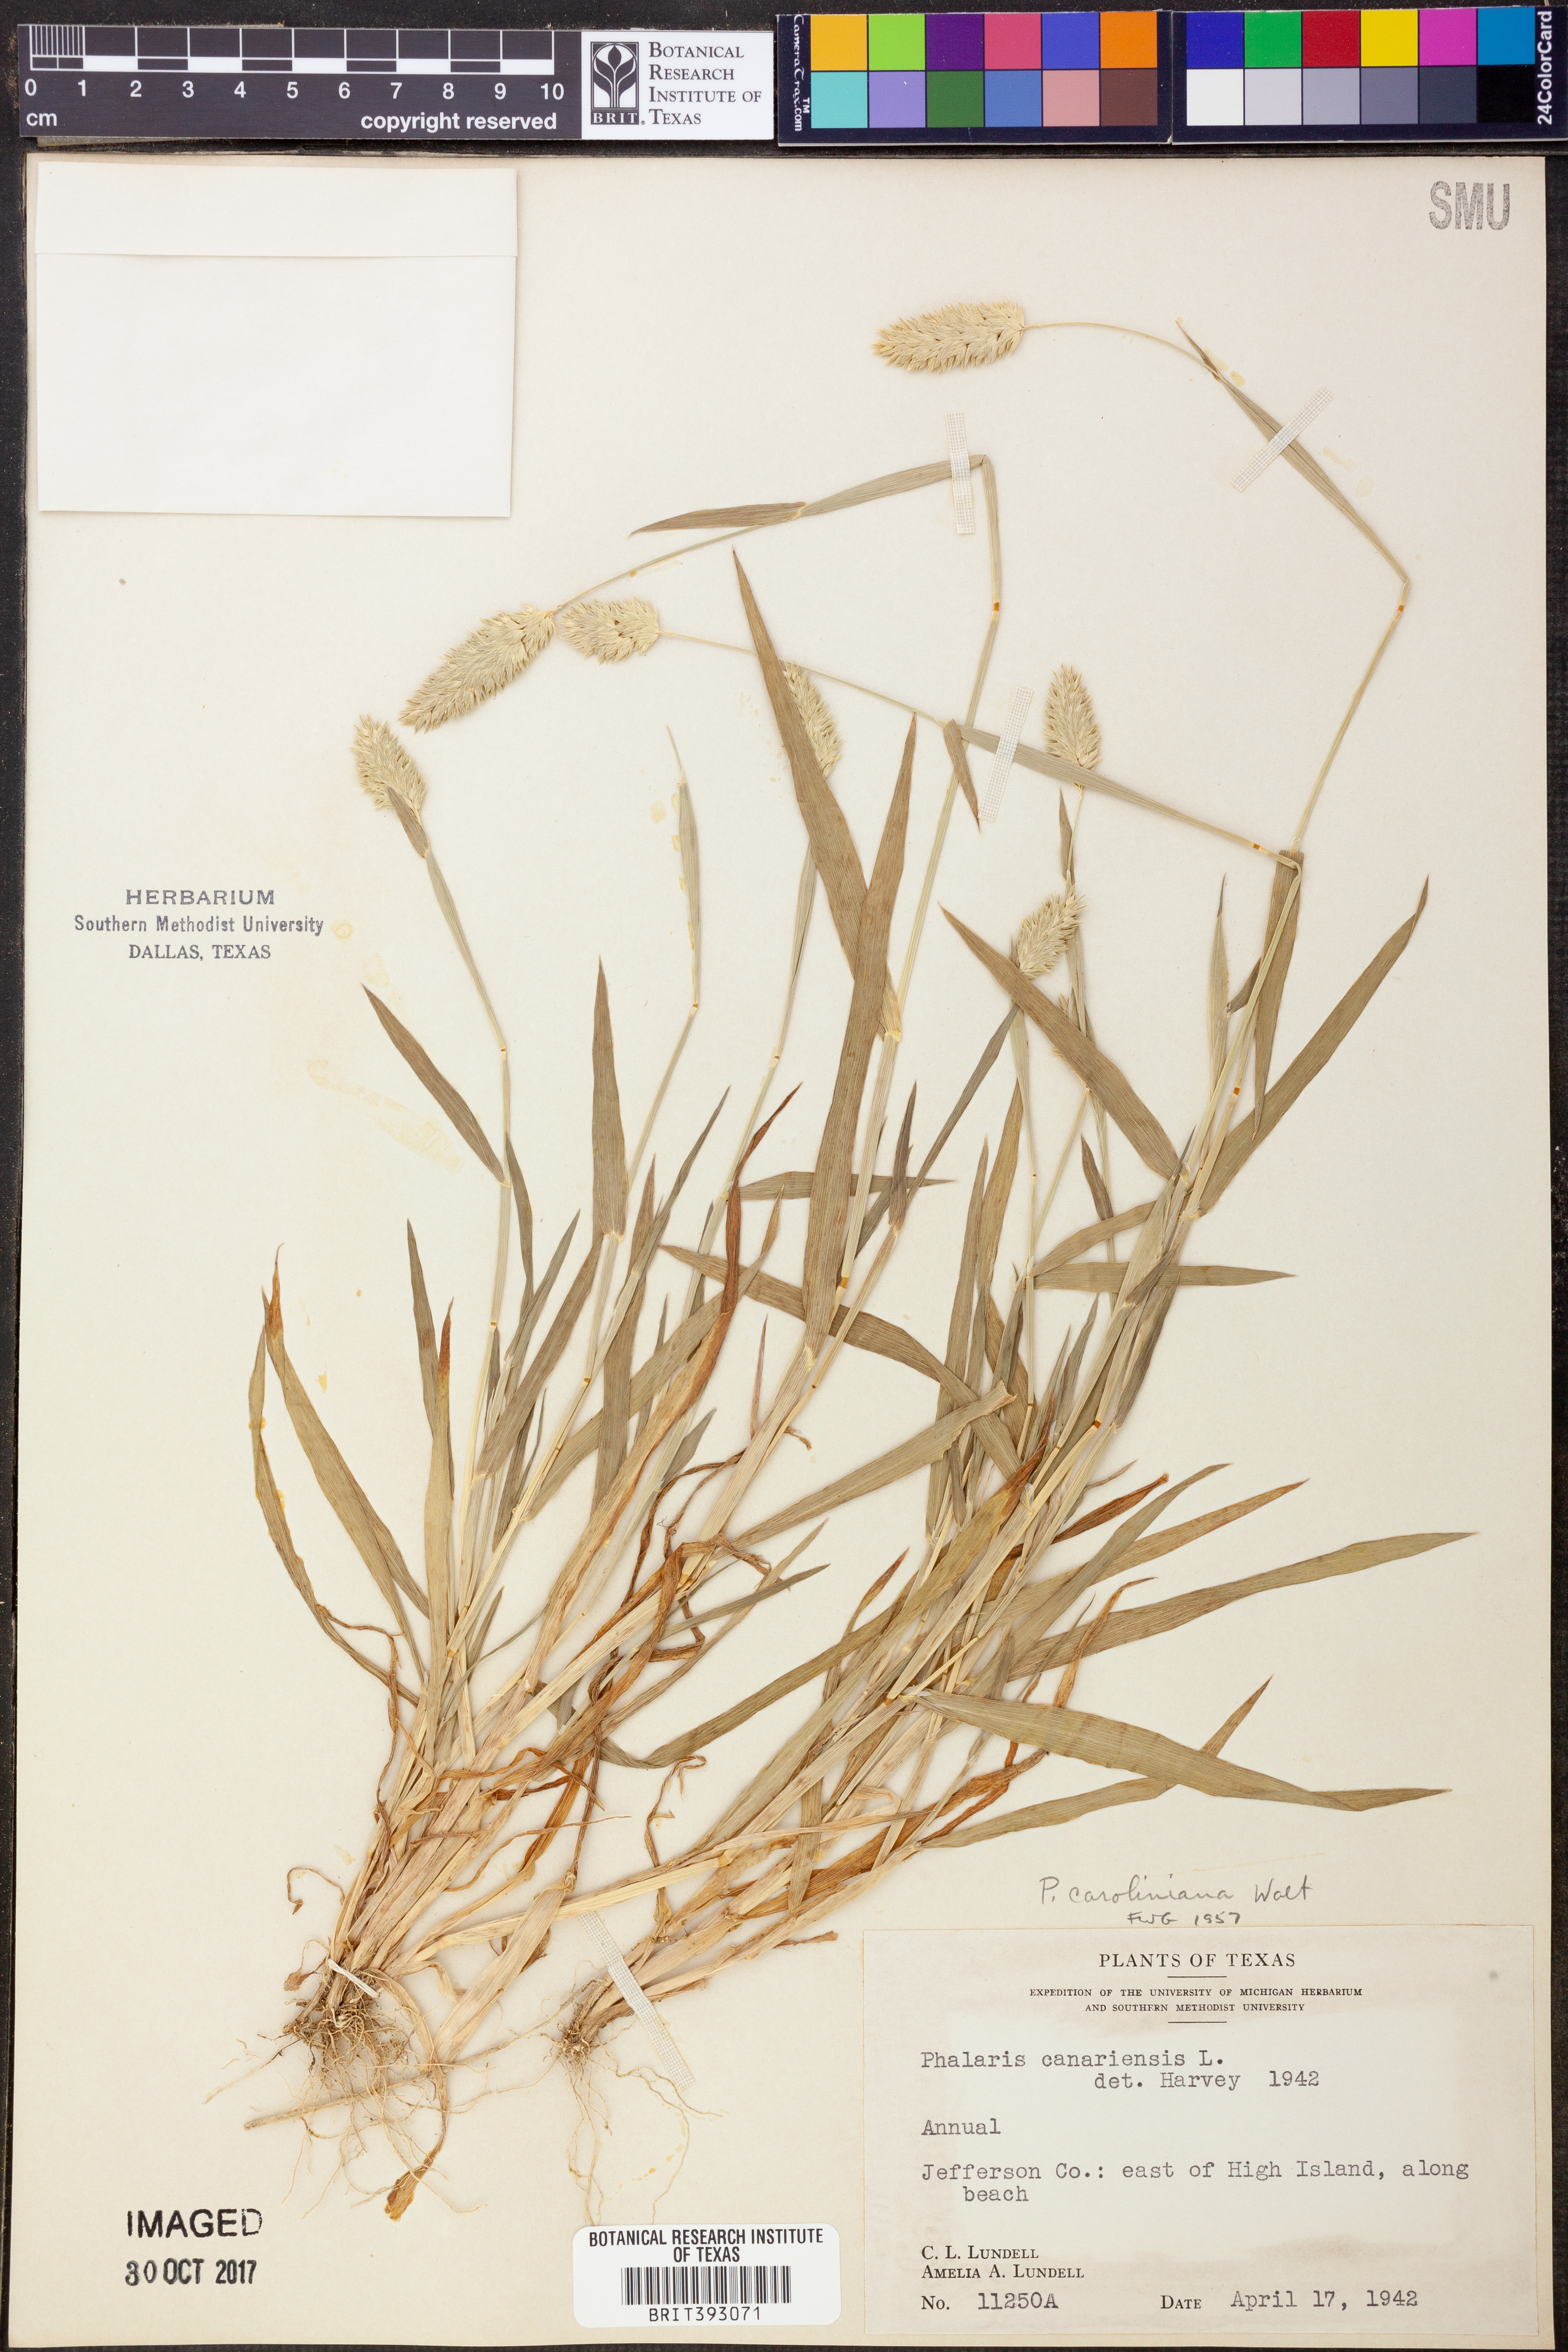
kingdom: Plantae
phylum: Tracheophyta
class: Liliopsida
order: Poales
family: Poaceae
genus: Phalaris
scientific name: Phalaris caroliniana
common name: May grass
